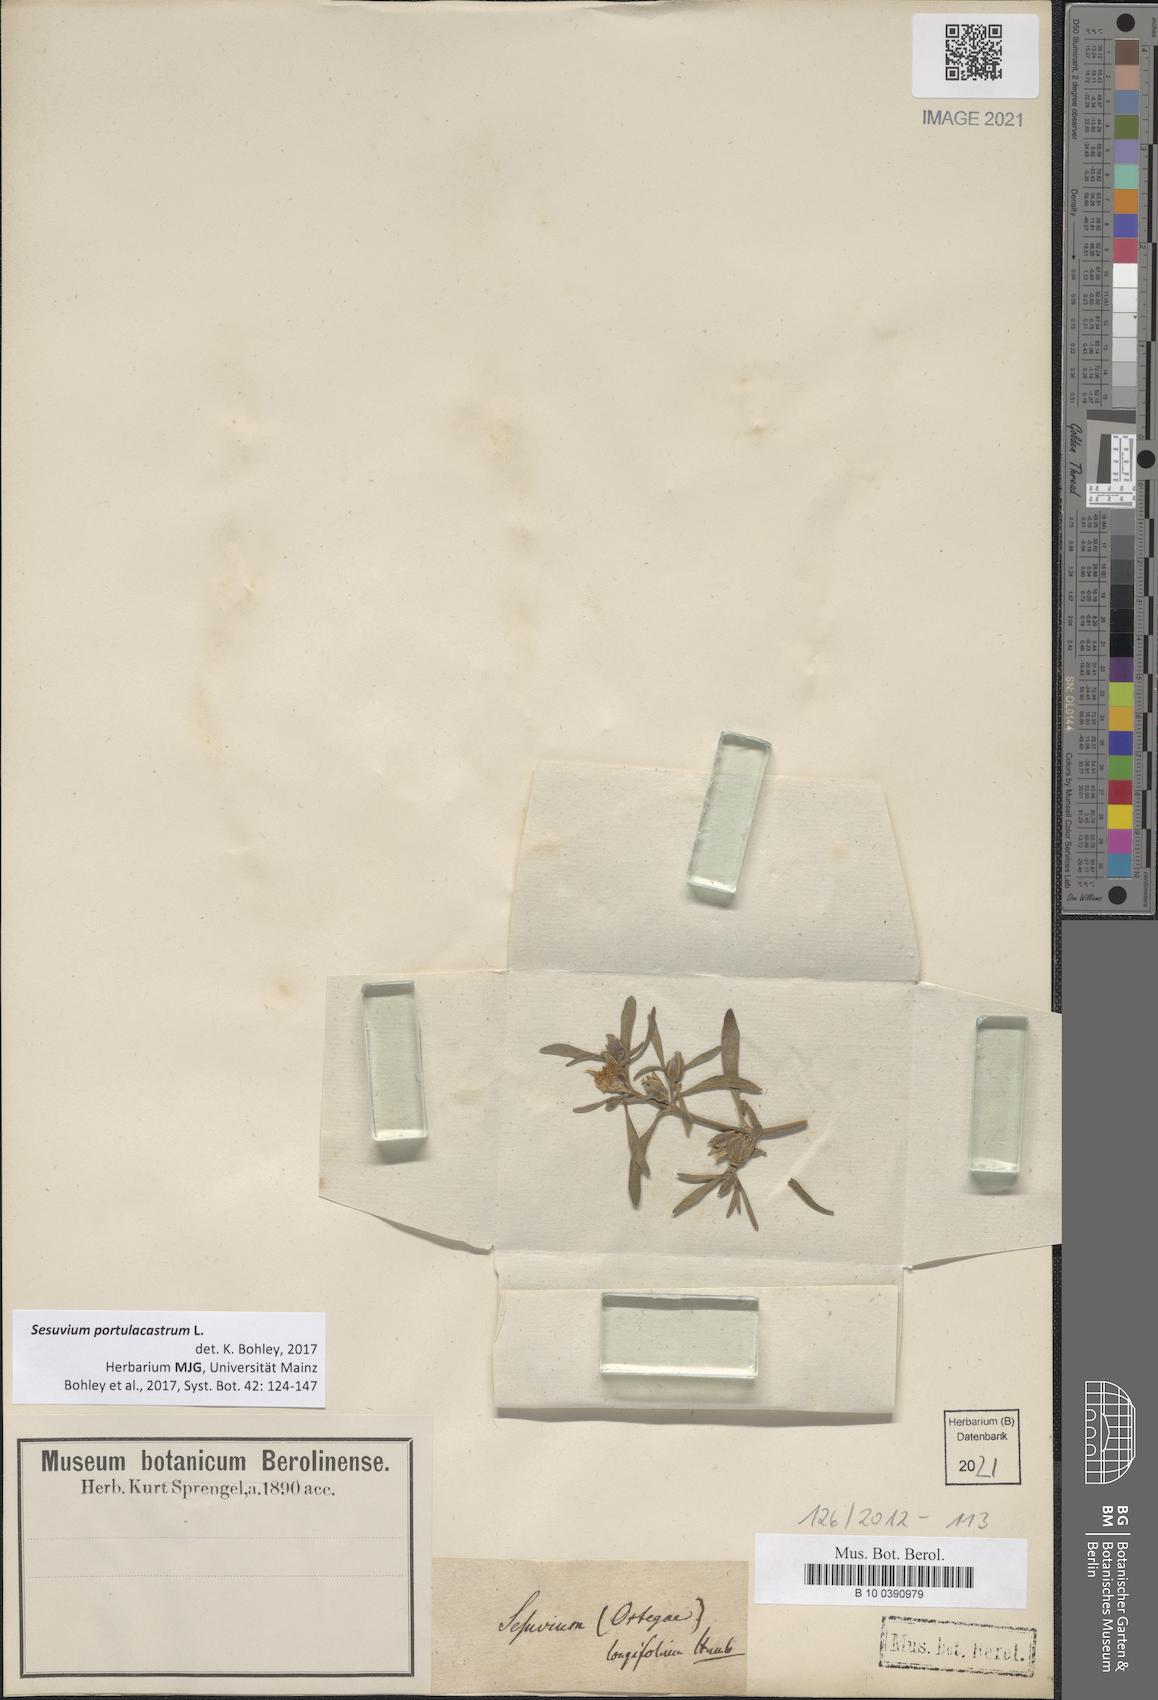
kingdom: Plantae
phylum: Tracheophyta
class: Magnoliopsida
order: Caryophyllales
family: Aizoaceae
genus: Sesuvium
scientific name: Sesuvium portulacastrum
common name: Sea-purslane
